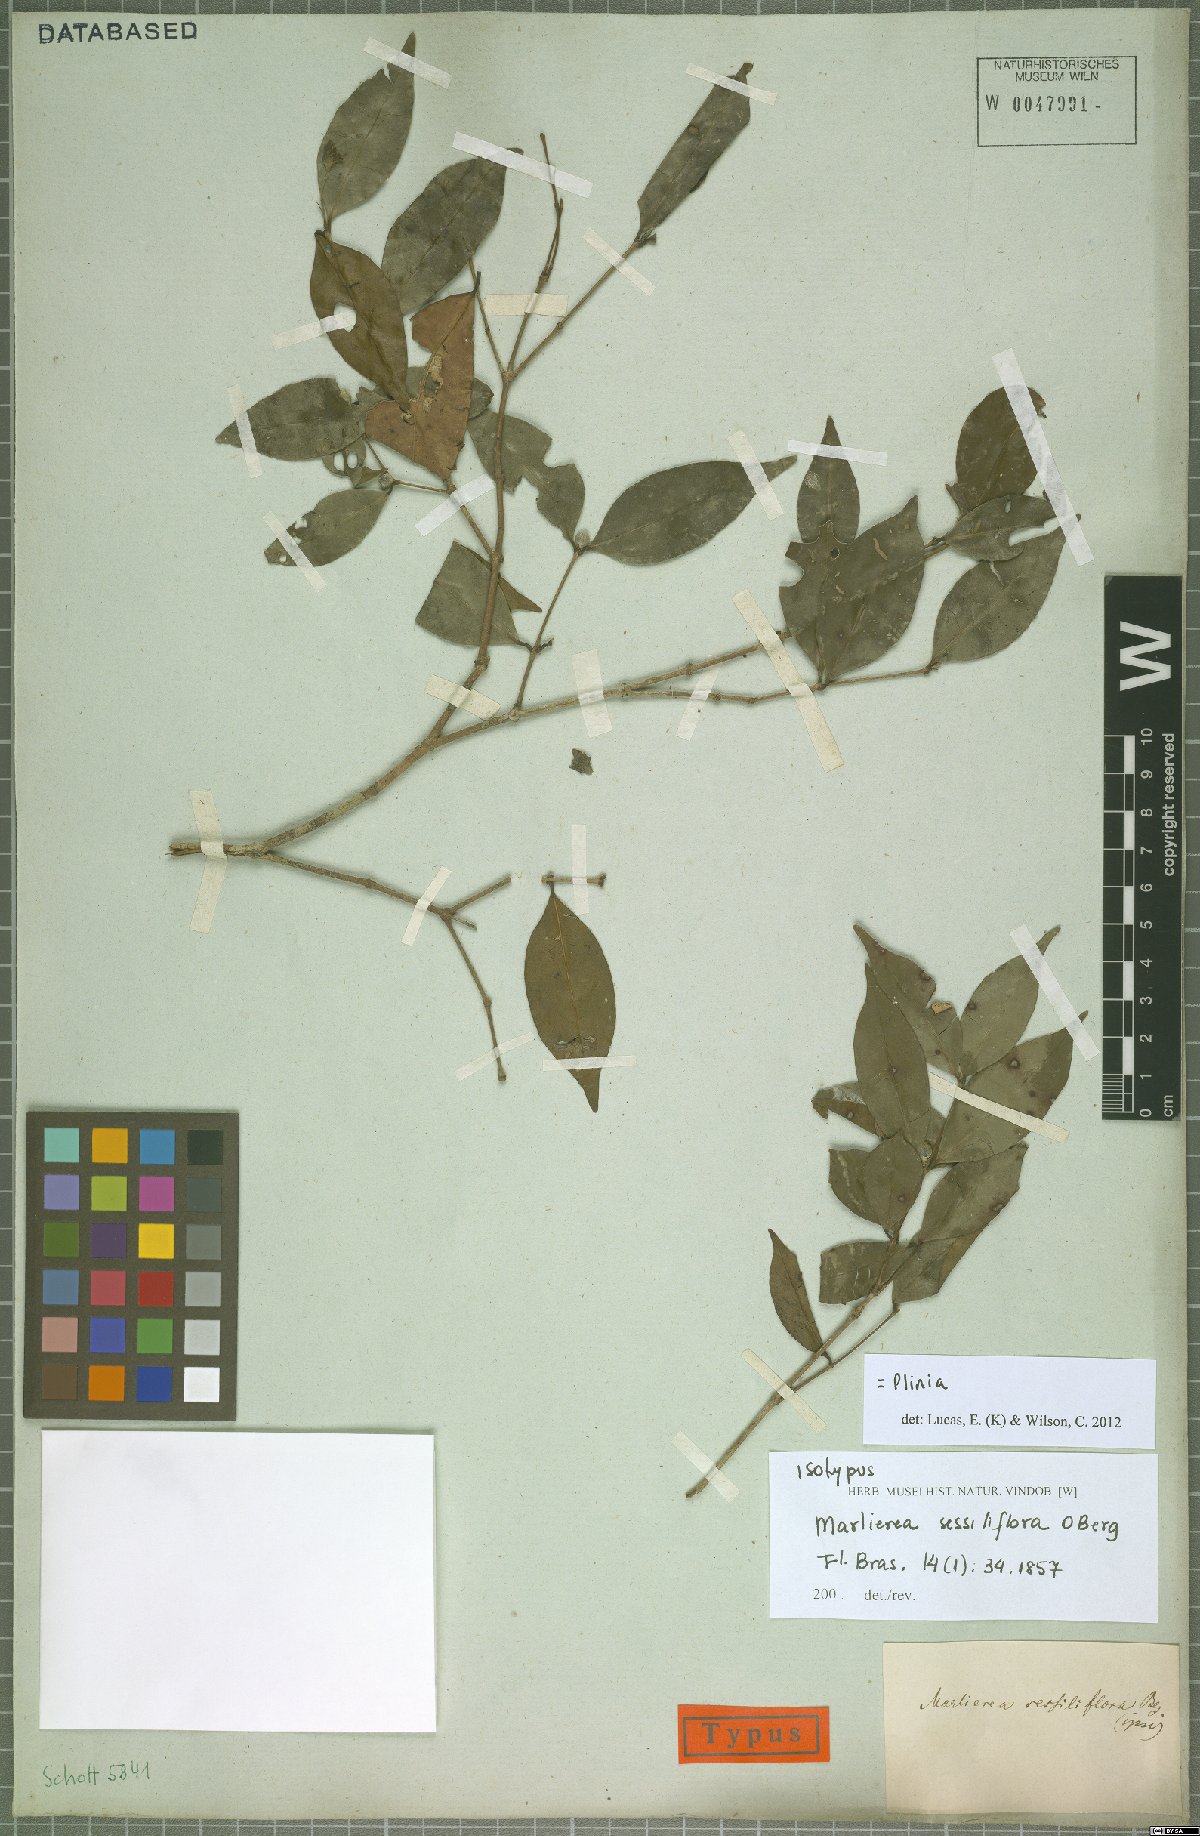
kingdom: Plantae
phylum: Tracheophyta
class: Magnoliopsida
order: Myrtales
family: Myrtaceae
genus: Plinia
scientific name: Plinia
